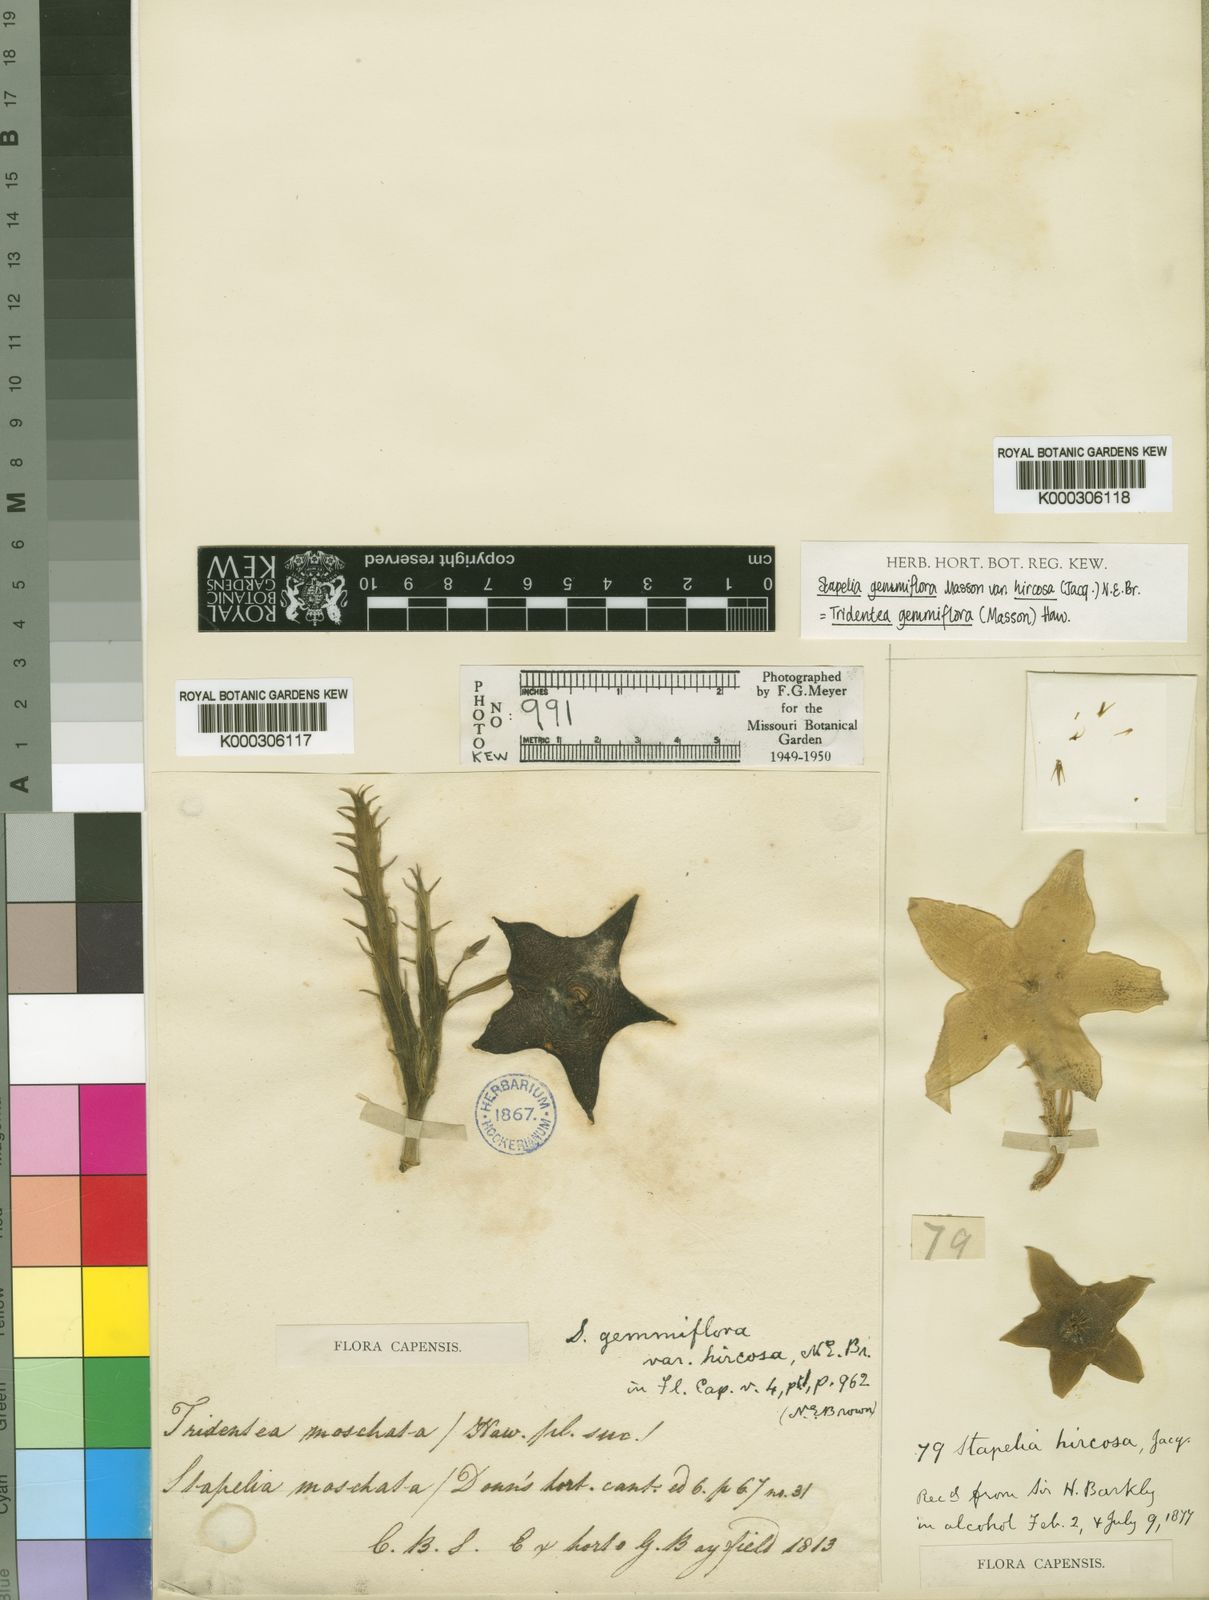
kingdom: Plantae
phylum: Tracheophyta
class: Magnoliopsida
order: Gentianales
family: Apocynaceae
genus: Ceropegia
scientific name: Ceropegia gemmiflora
